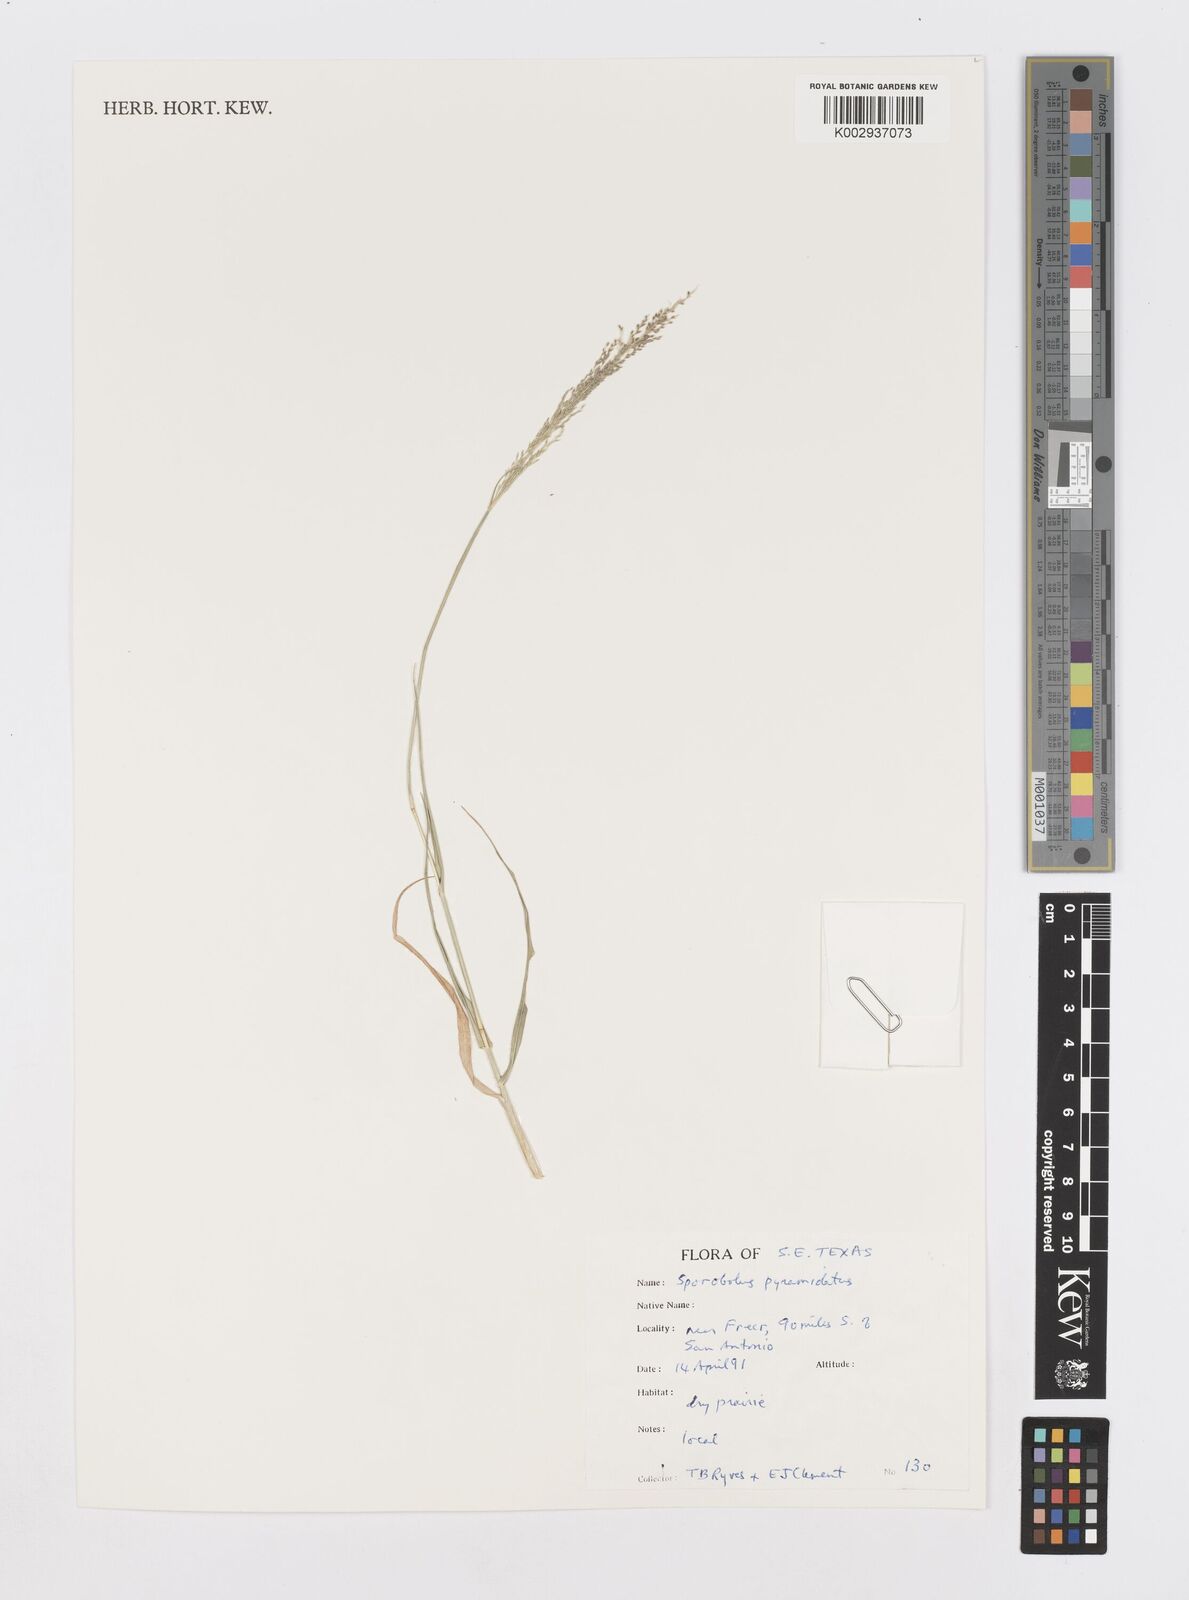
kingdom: Plantae
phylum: Tracheophyta
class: Liliopsida
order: Poales
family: Poaceae
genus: Sporobolus
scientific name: Sporobolus pyramidatus
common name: Whorled dropseed
